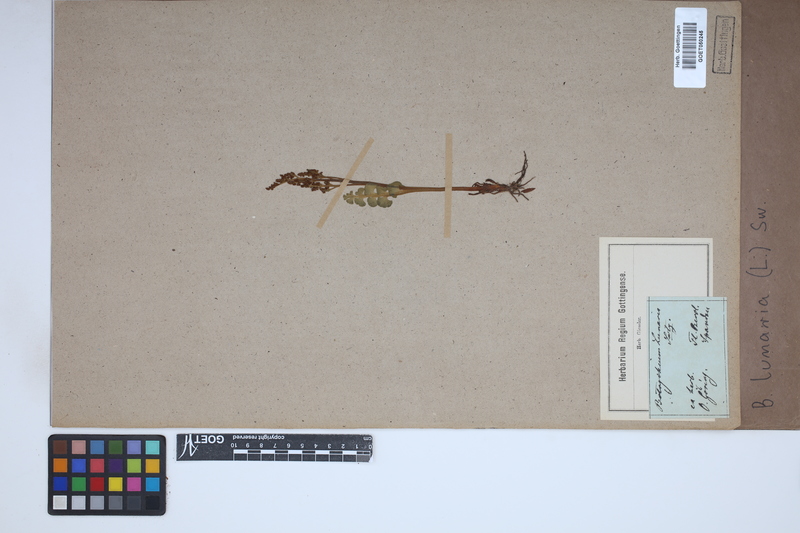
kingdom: Plantae
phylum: Tracheophyta
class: Polypodiopsida
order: Ophioglossales
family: Ophioglossaceae
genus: Botrychium
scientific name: Botrychium lunaria
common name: Moonwort
